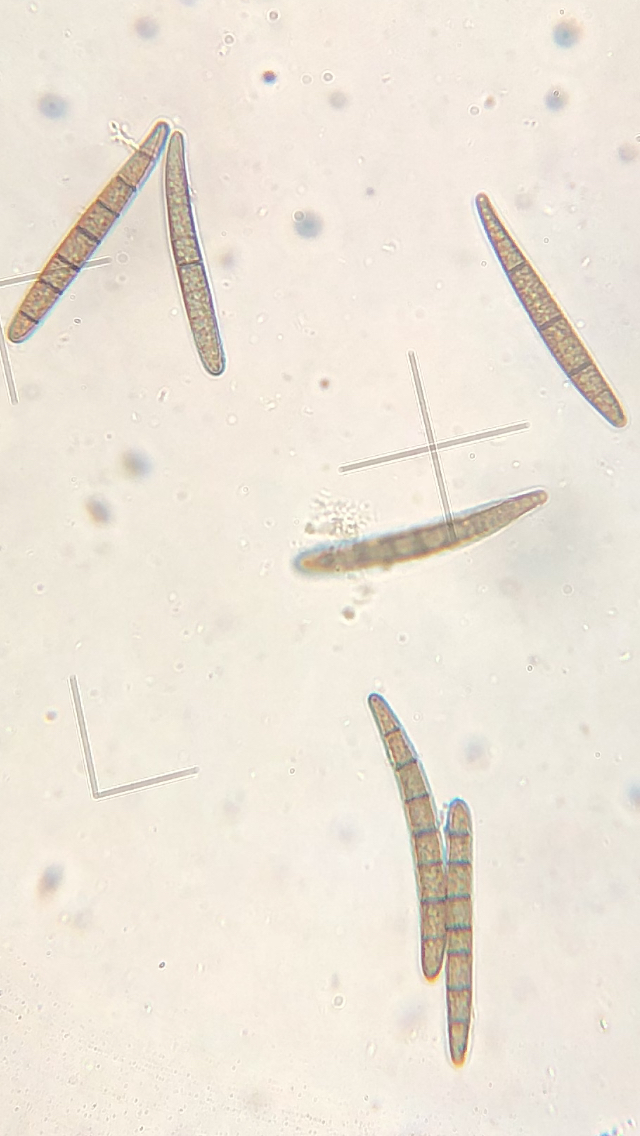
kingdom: Fungi
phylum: Ascomycota
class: Geoglossomycetes
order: Geoglossales
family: Geoglossaceae
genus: Geoglossum
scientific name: Geoglossum
